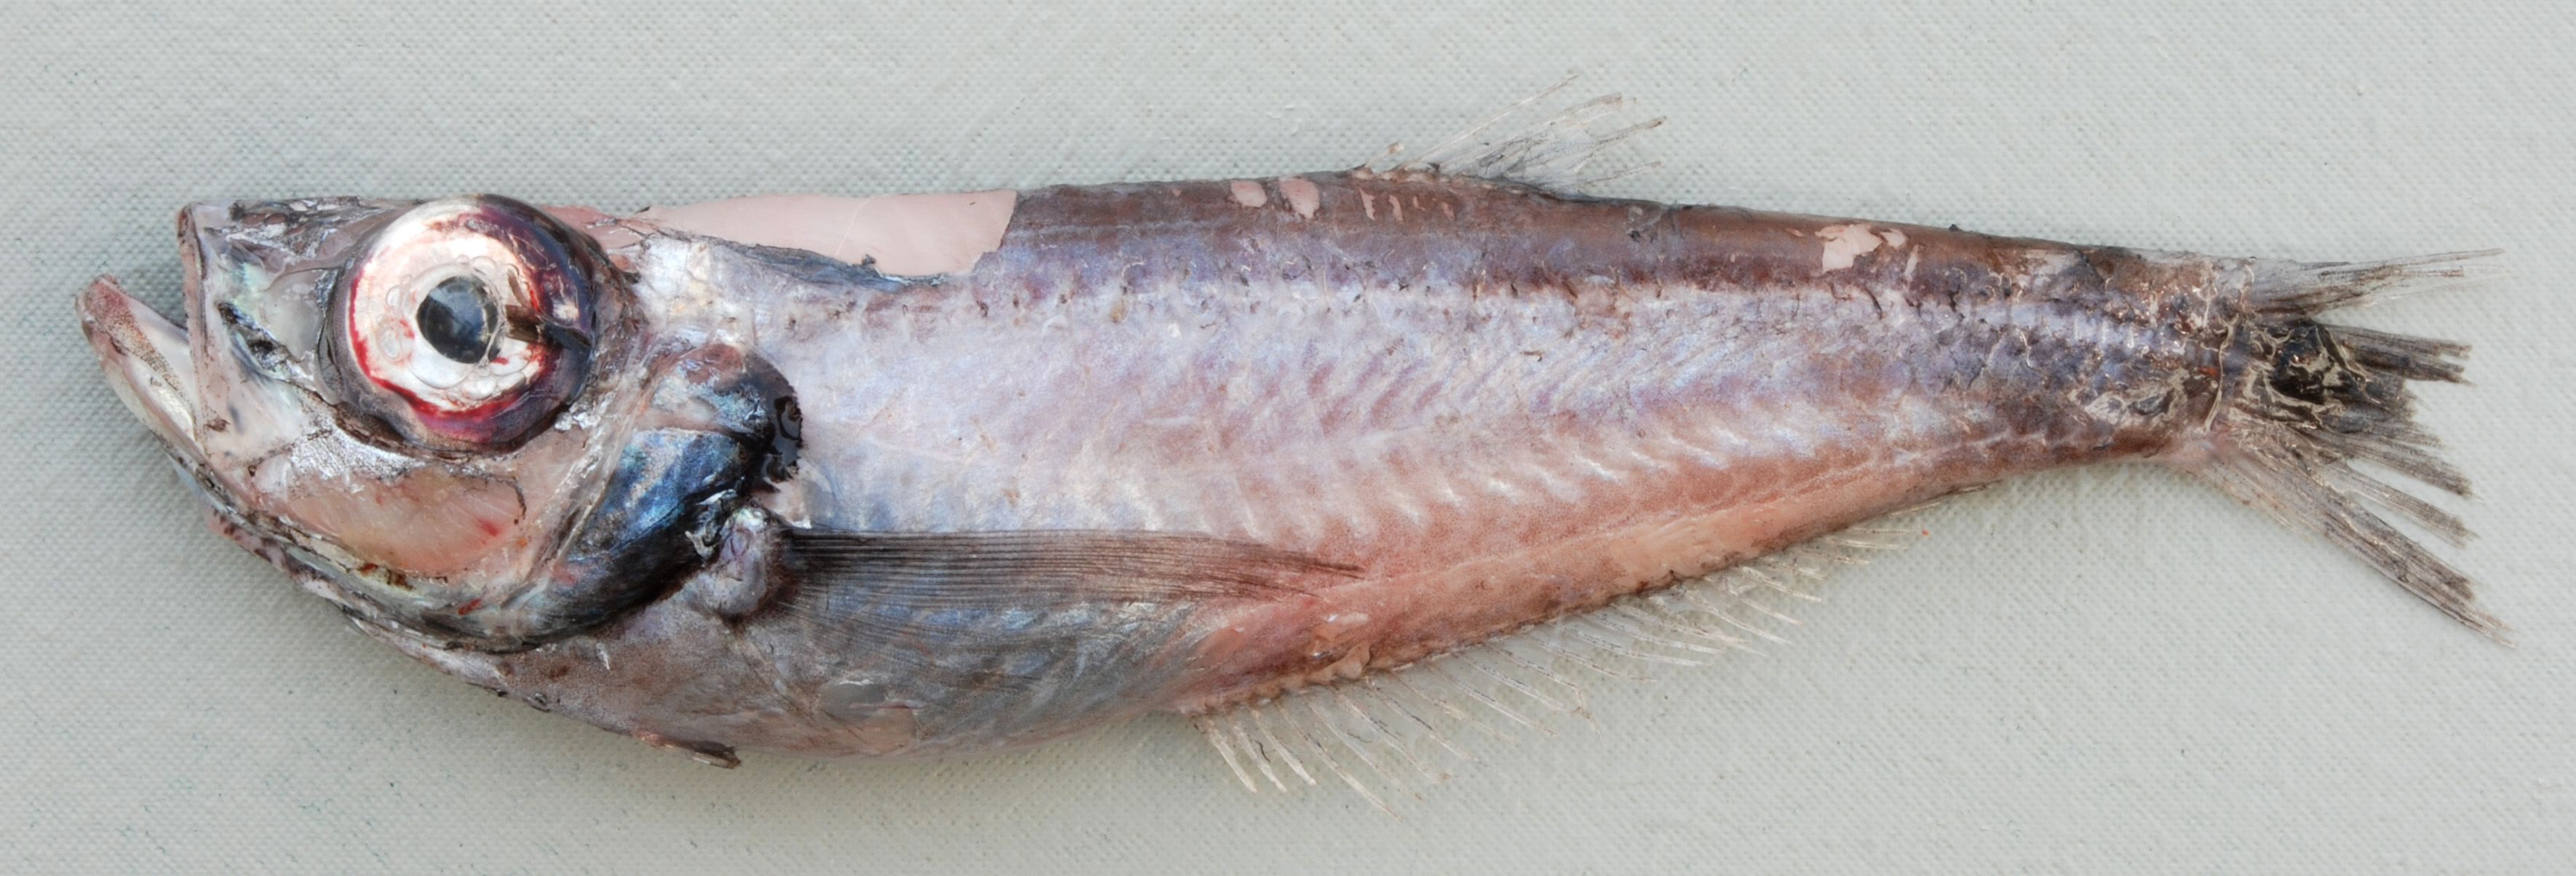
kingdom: Animalia
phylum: Chordata
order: Perciformes
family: Bathyclupeidae
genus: Neobathyclupea
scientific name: Neobathyclupea
